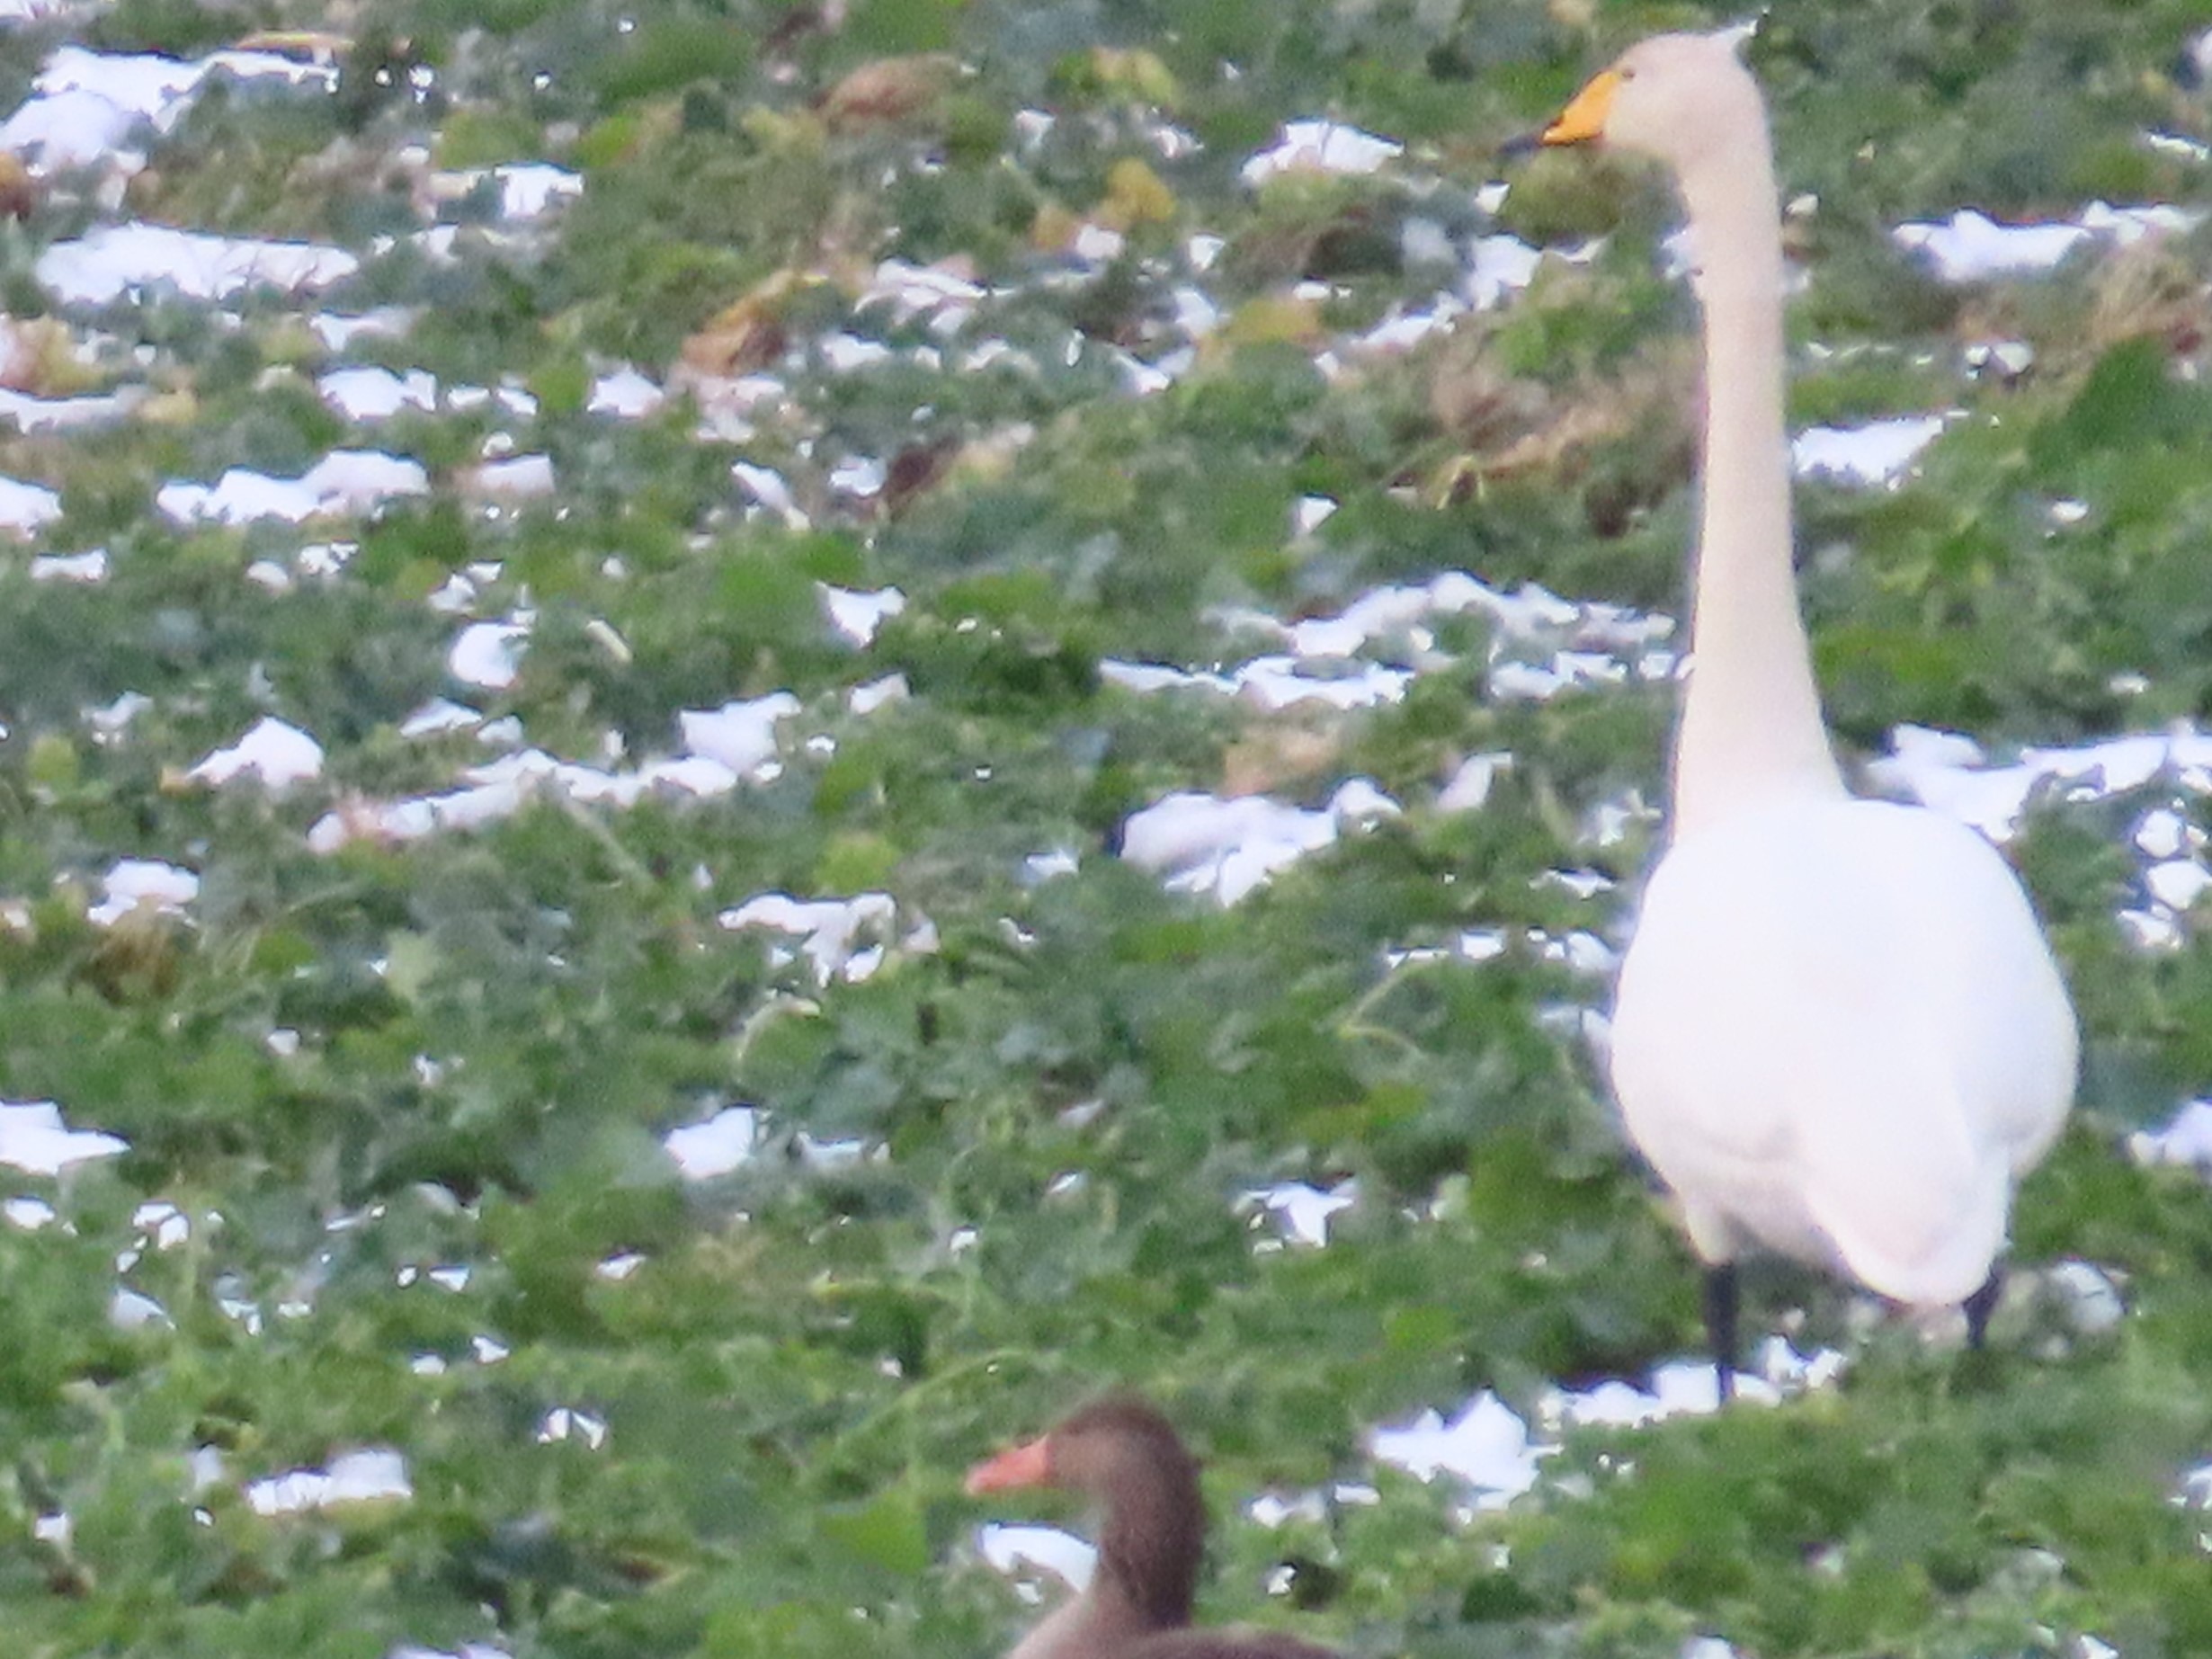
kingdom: Animalia
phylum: Chordata
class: Aves
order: Anseriformes
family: Anatidae
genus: Cygnus
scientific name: Cygnus cygnus
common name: Sangsvane
